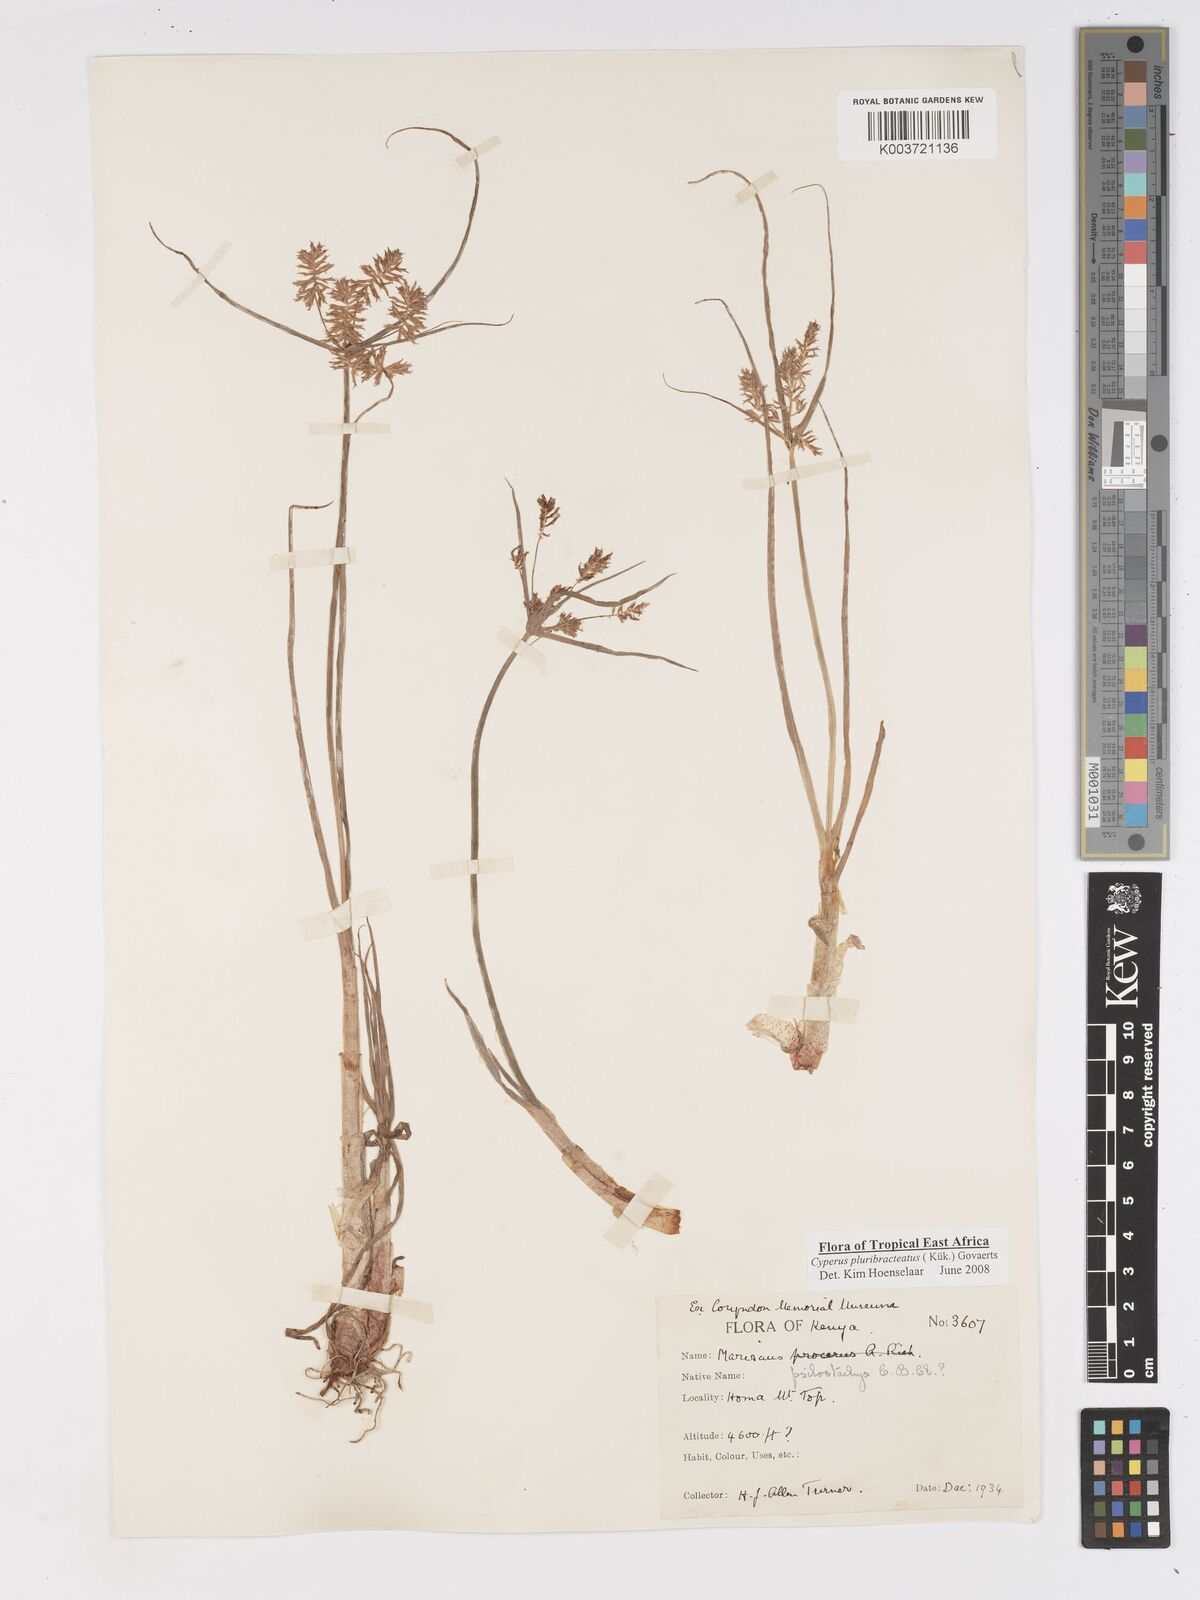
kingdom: Plantae
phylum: Tracheophyta
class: Liliopsida
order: Poales
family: Cyperaceae
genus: Cyperus
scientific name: Cyperus trigonellus
